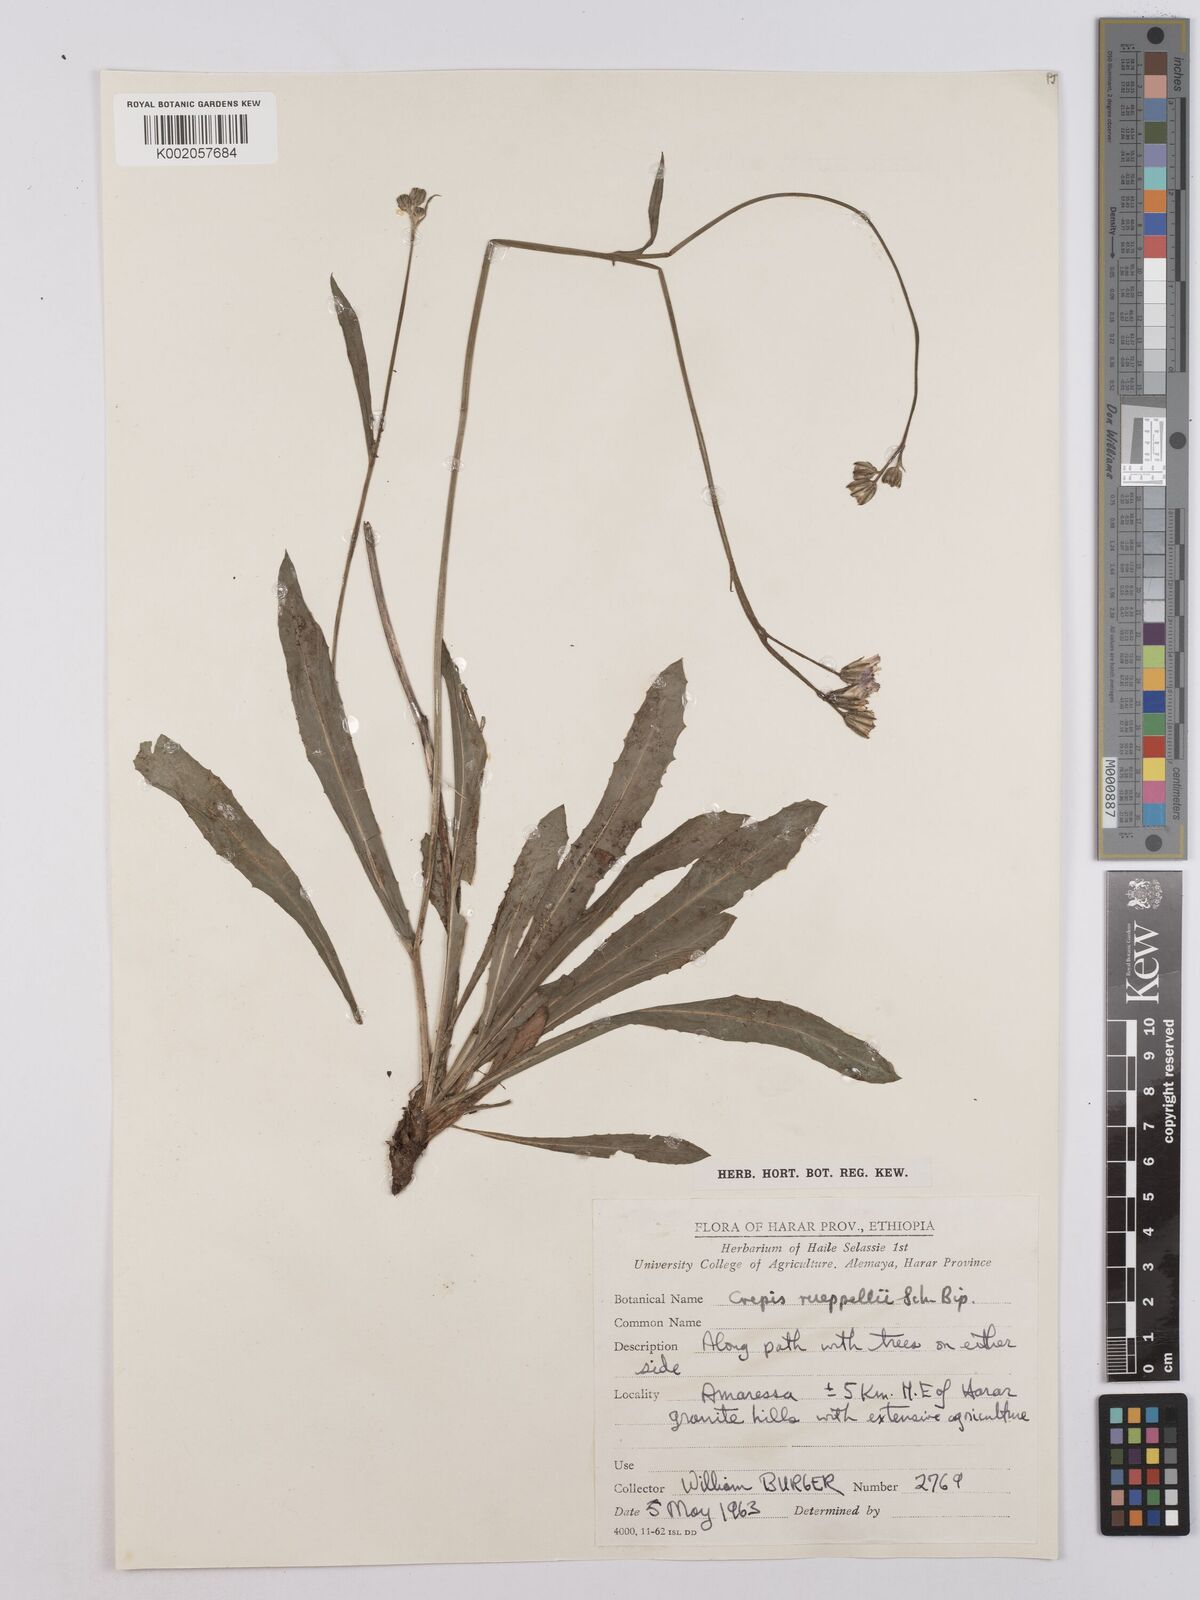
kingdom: Plantae
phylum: Tracheophyta
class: Magnoliopsida
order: Asterales
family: Asteraceae
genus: Crepis
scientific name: Crepis rueppellii
